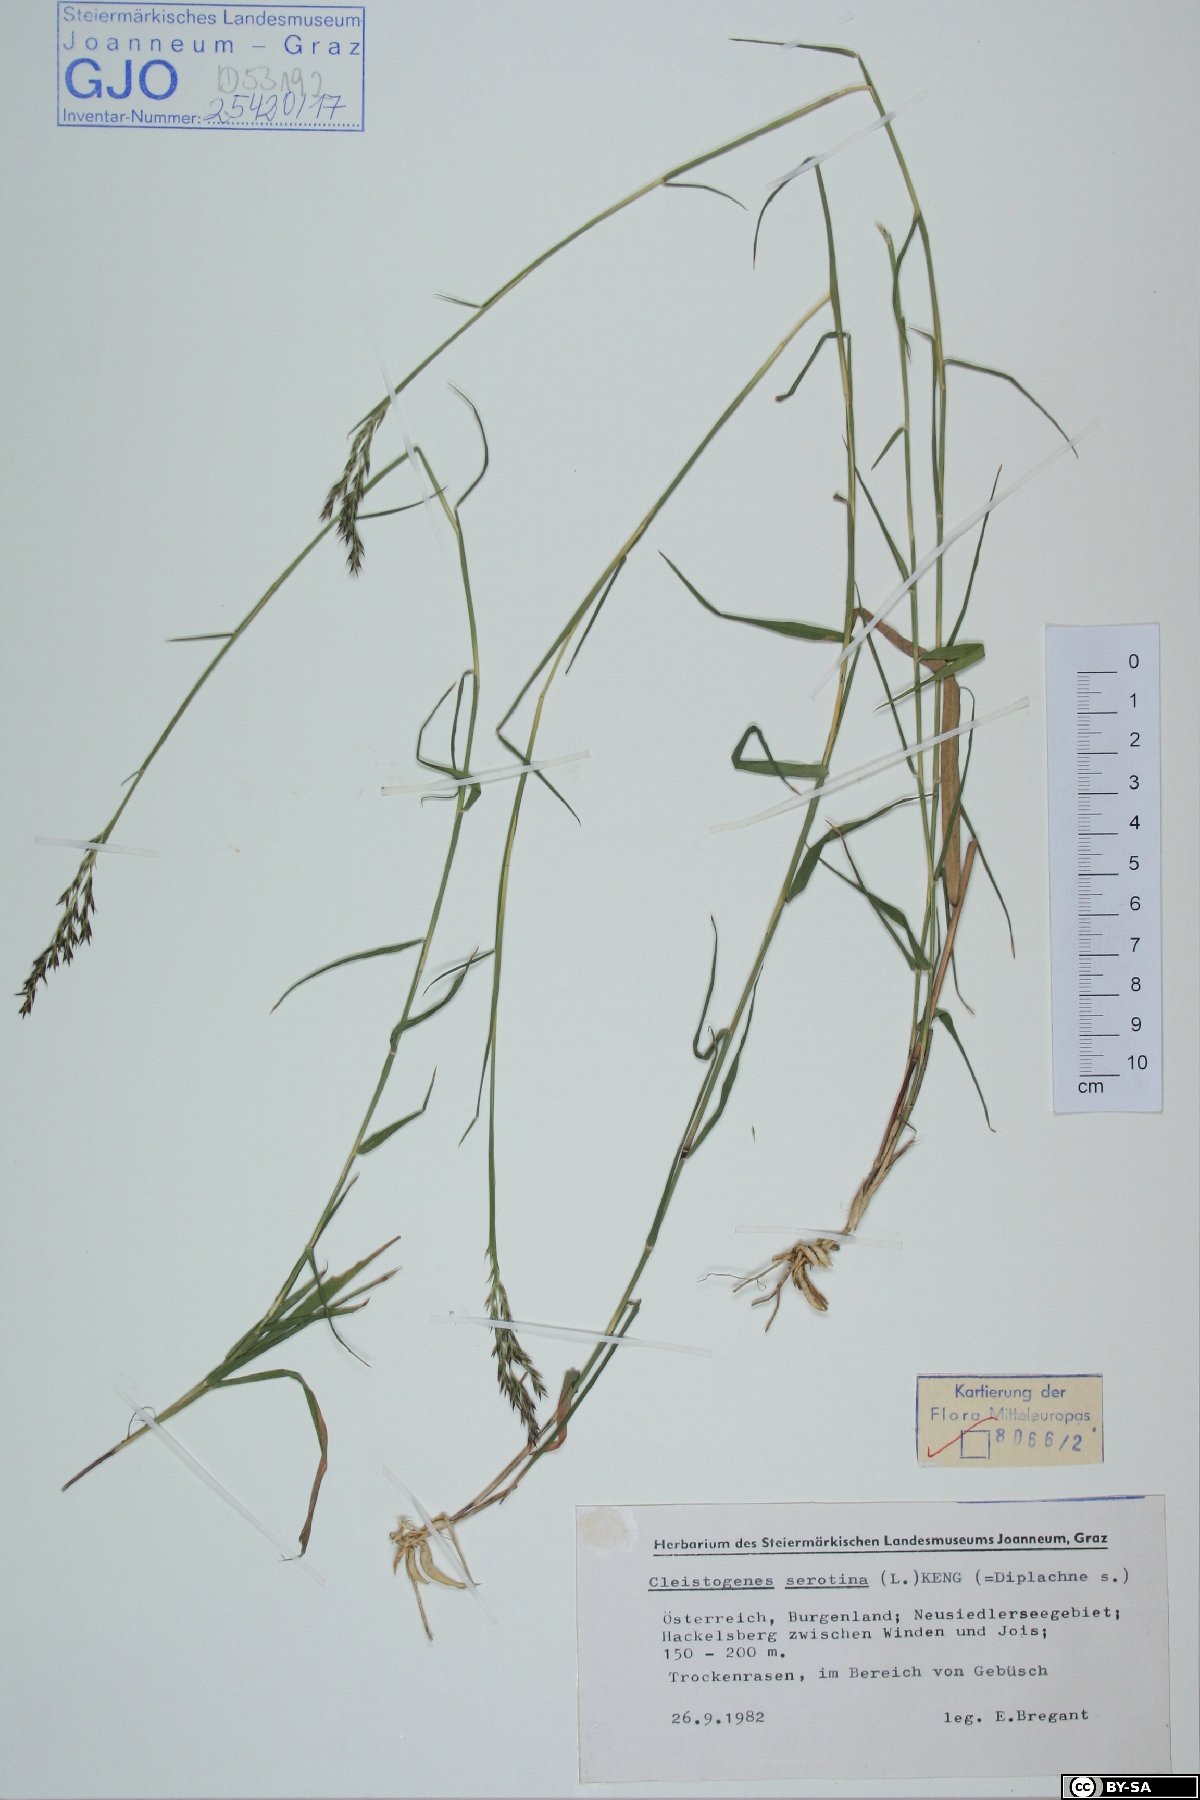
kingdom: Plantae
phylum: Tracheophyta
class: Liliopsida
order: Poales
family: Poaceae
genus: Cleistogenes
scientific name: Cleistogenes serotina
